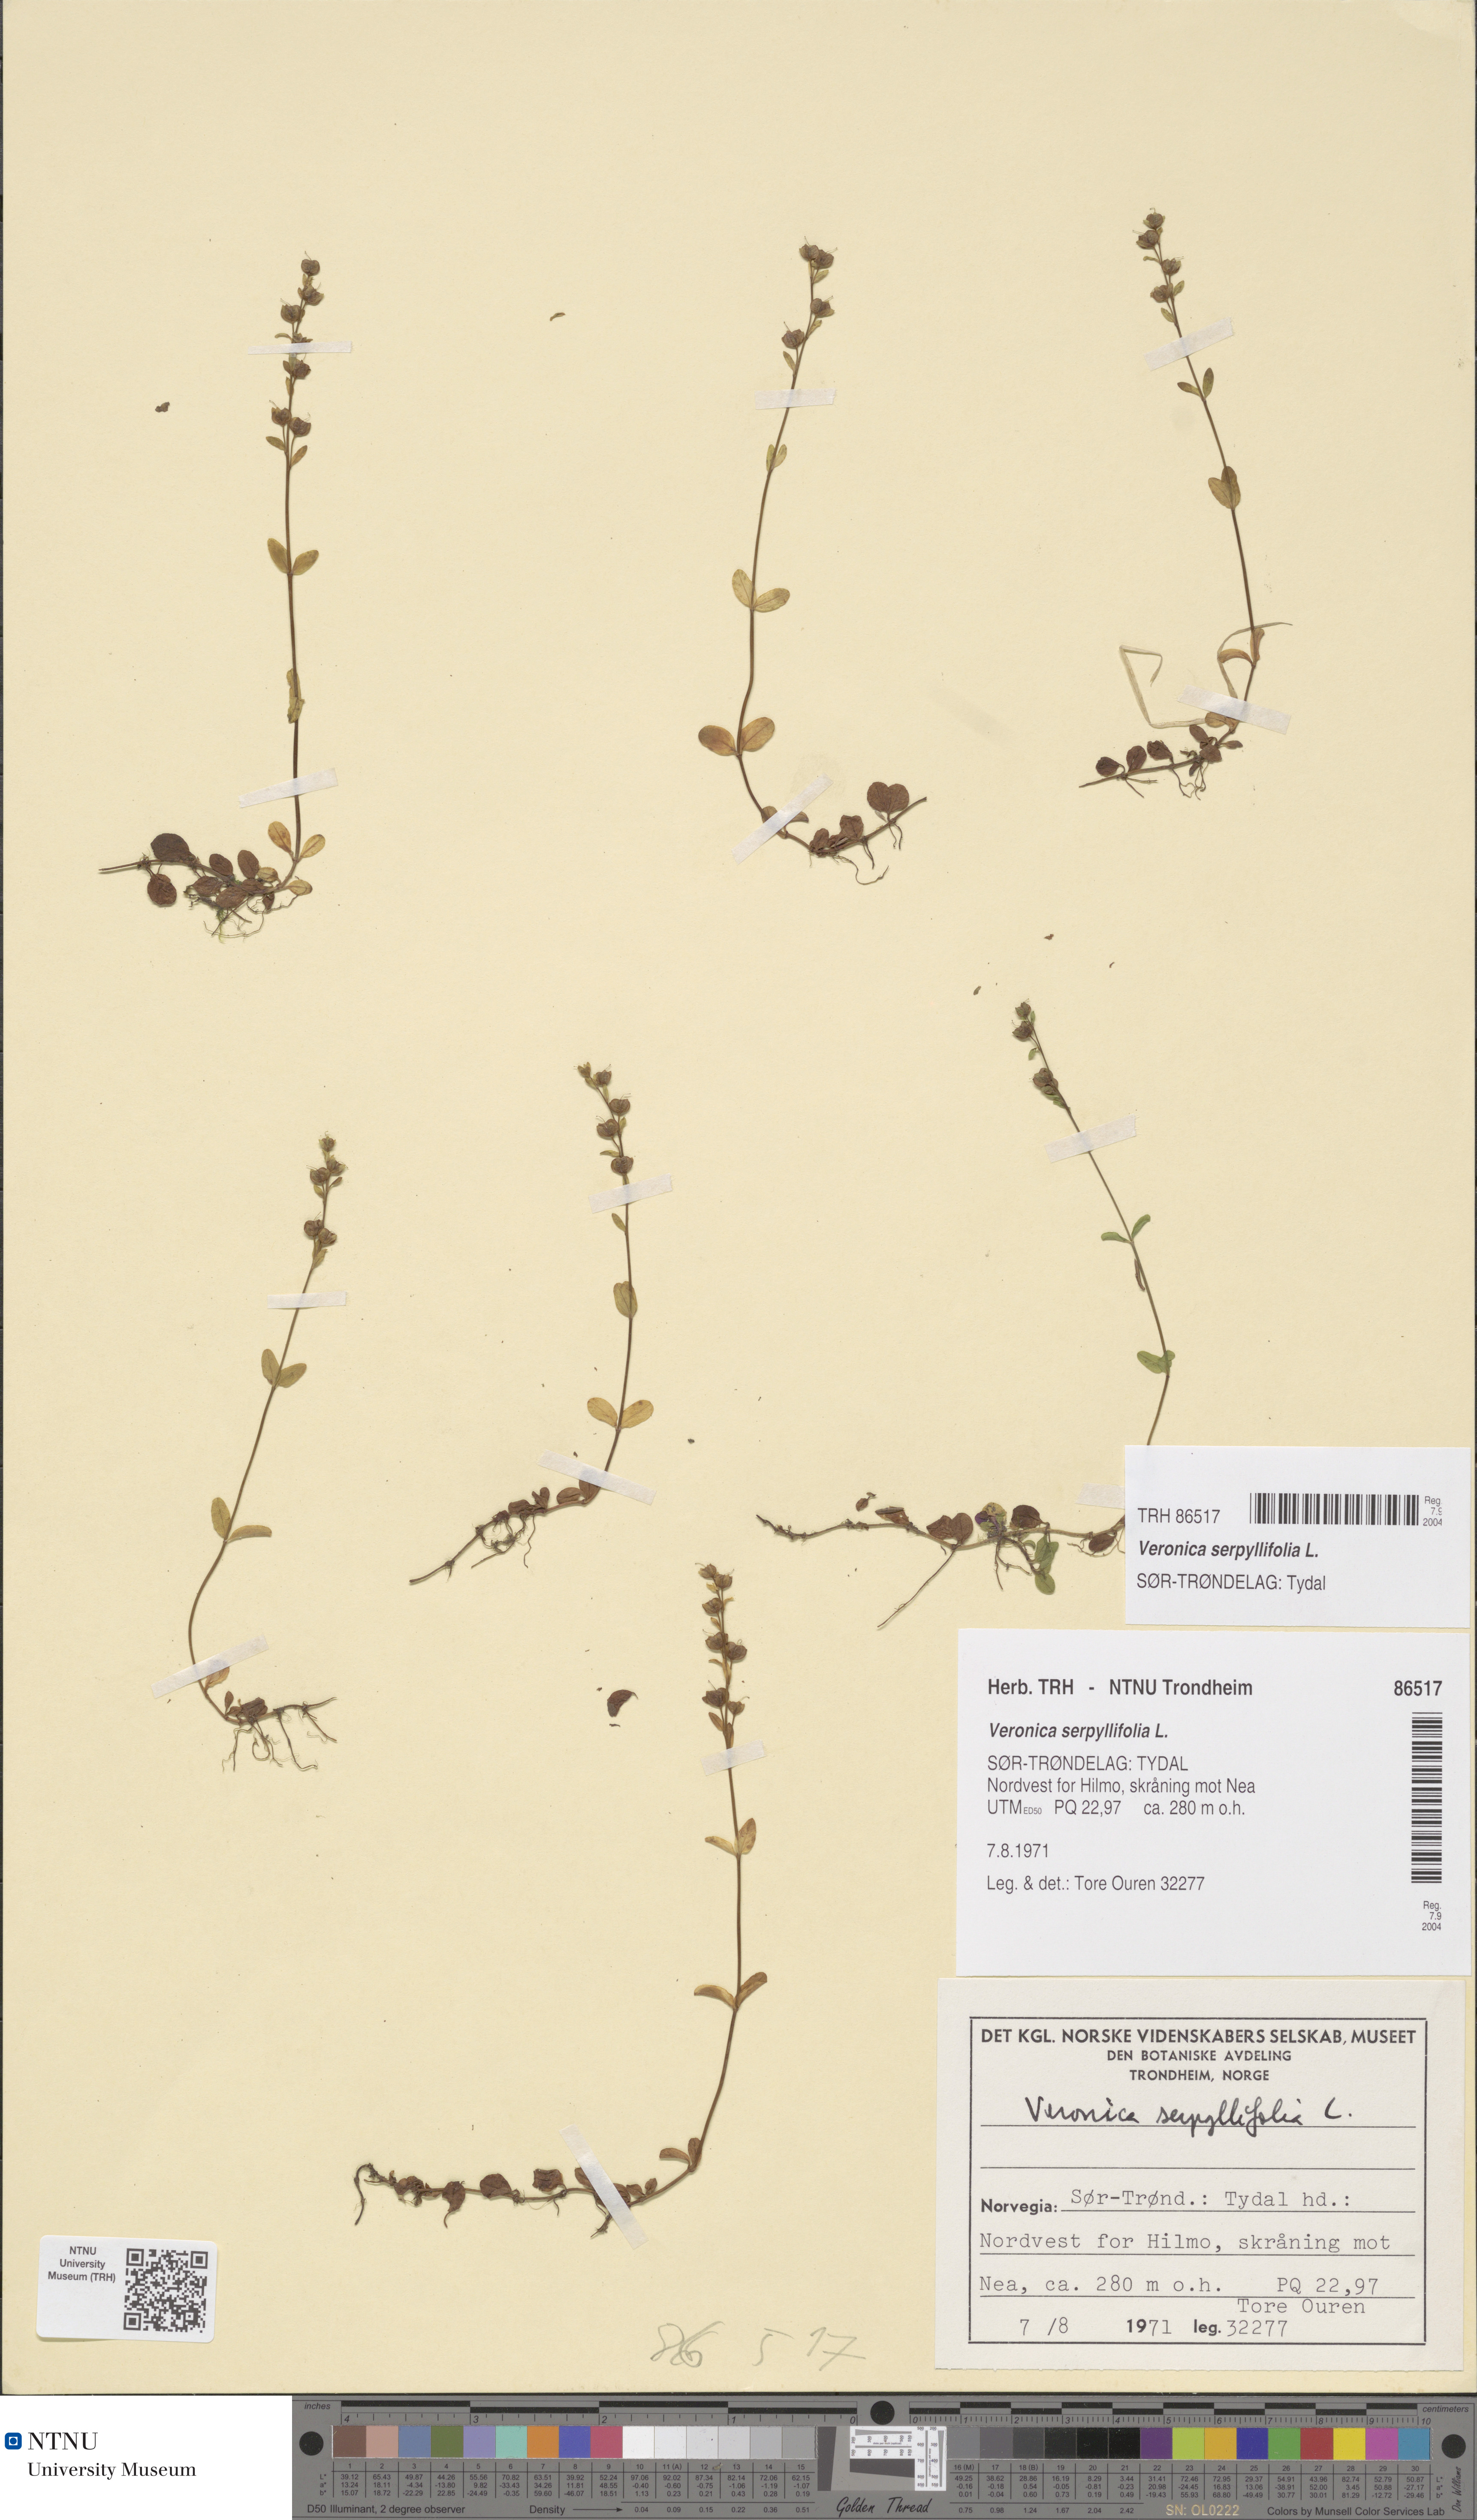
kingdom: Plantae
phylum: Tracheophyta
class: Magnoliopsida
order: Lamiales
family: Plantaginaceae
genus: Veronica
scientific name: Veronica serpyllifolia
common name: Thyme-leaved speedwell
